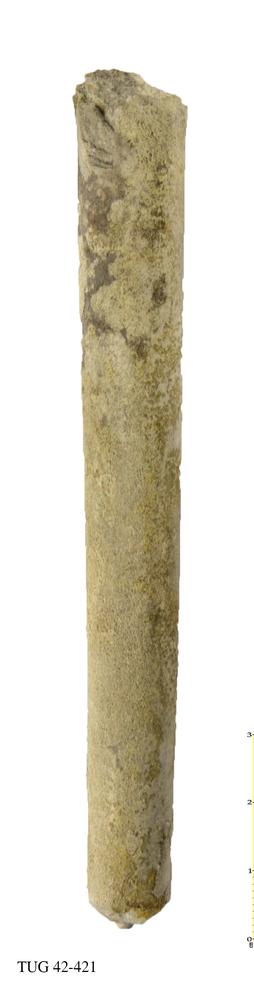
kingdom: Animalia
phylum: Mollusca
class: Cephalopoda
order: Orthocerida
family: Orthoceratidae
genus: Orthoceras
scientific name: Orthoceras regulare
